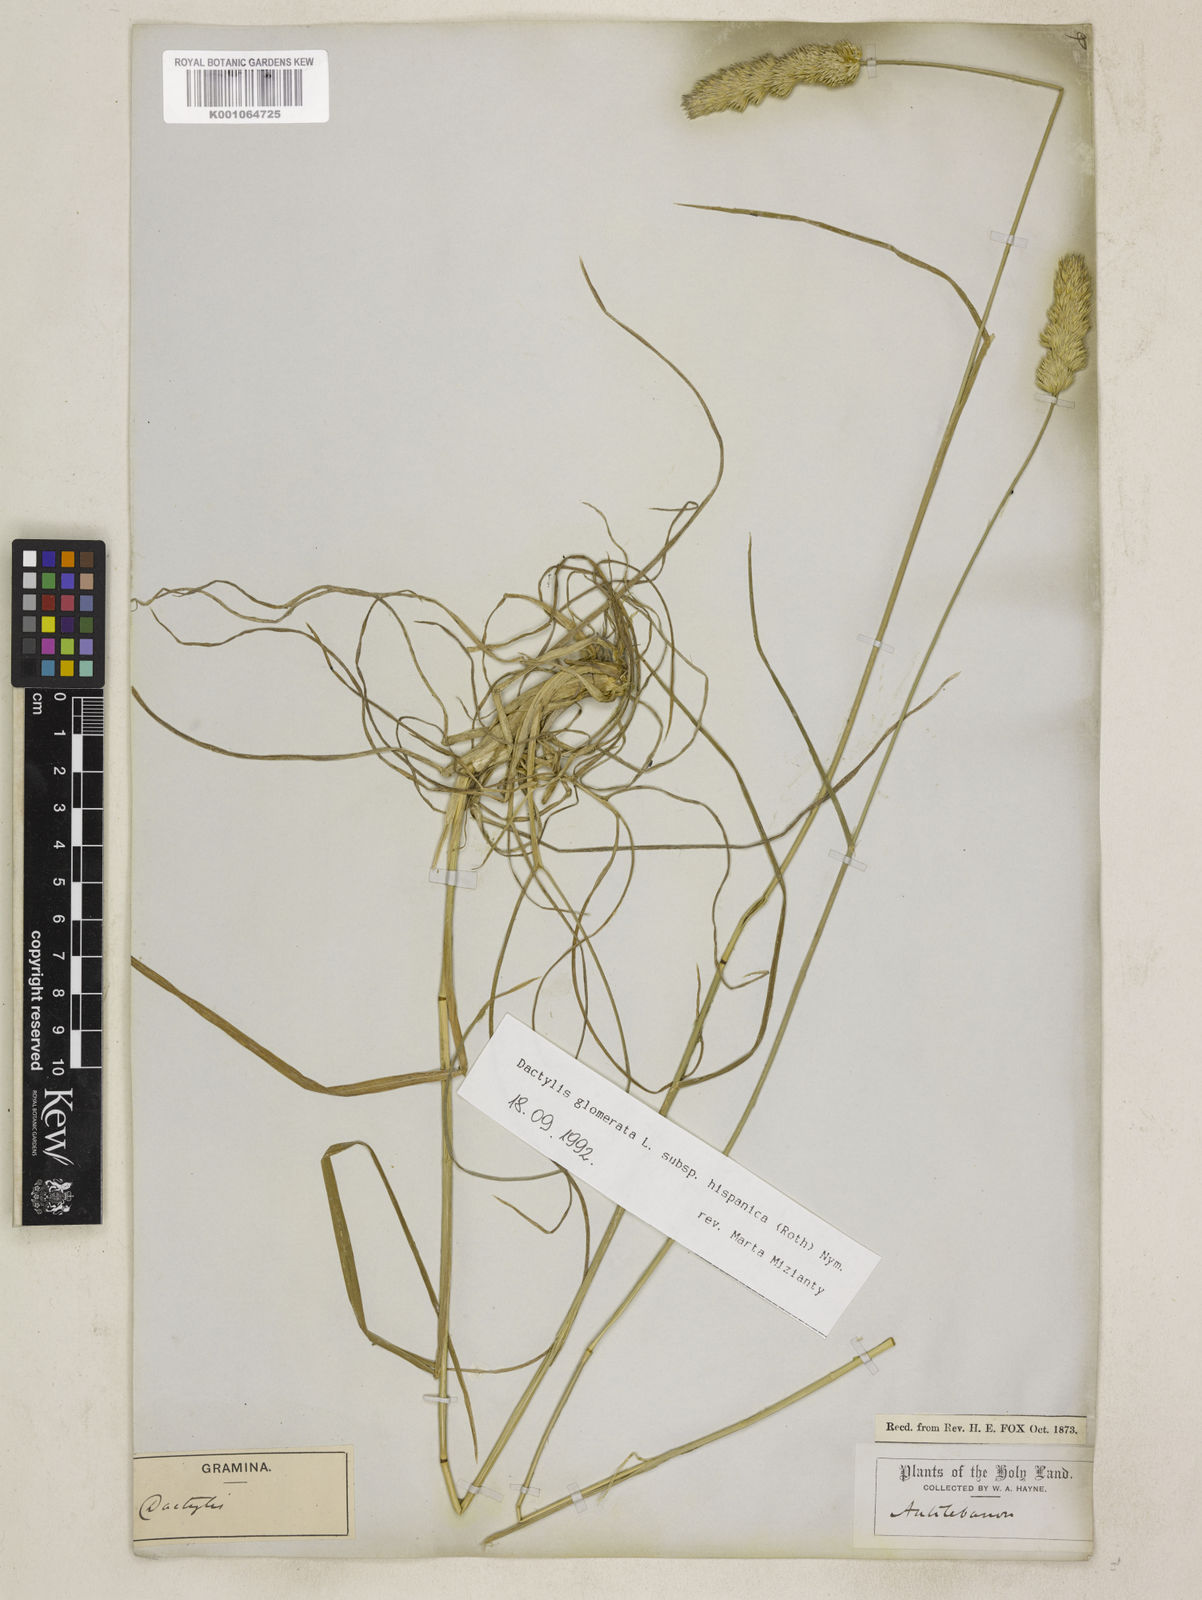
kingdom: Plantae
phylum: Tracheophyta
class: Liliopsida
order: Poales
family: Poaceae
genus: Dactylis
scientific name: Dactylis glomerata
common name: Orchardgrass
